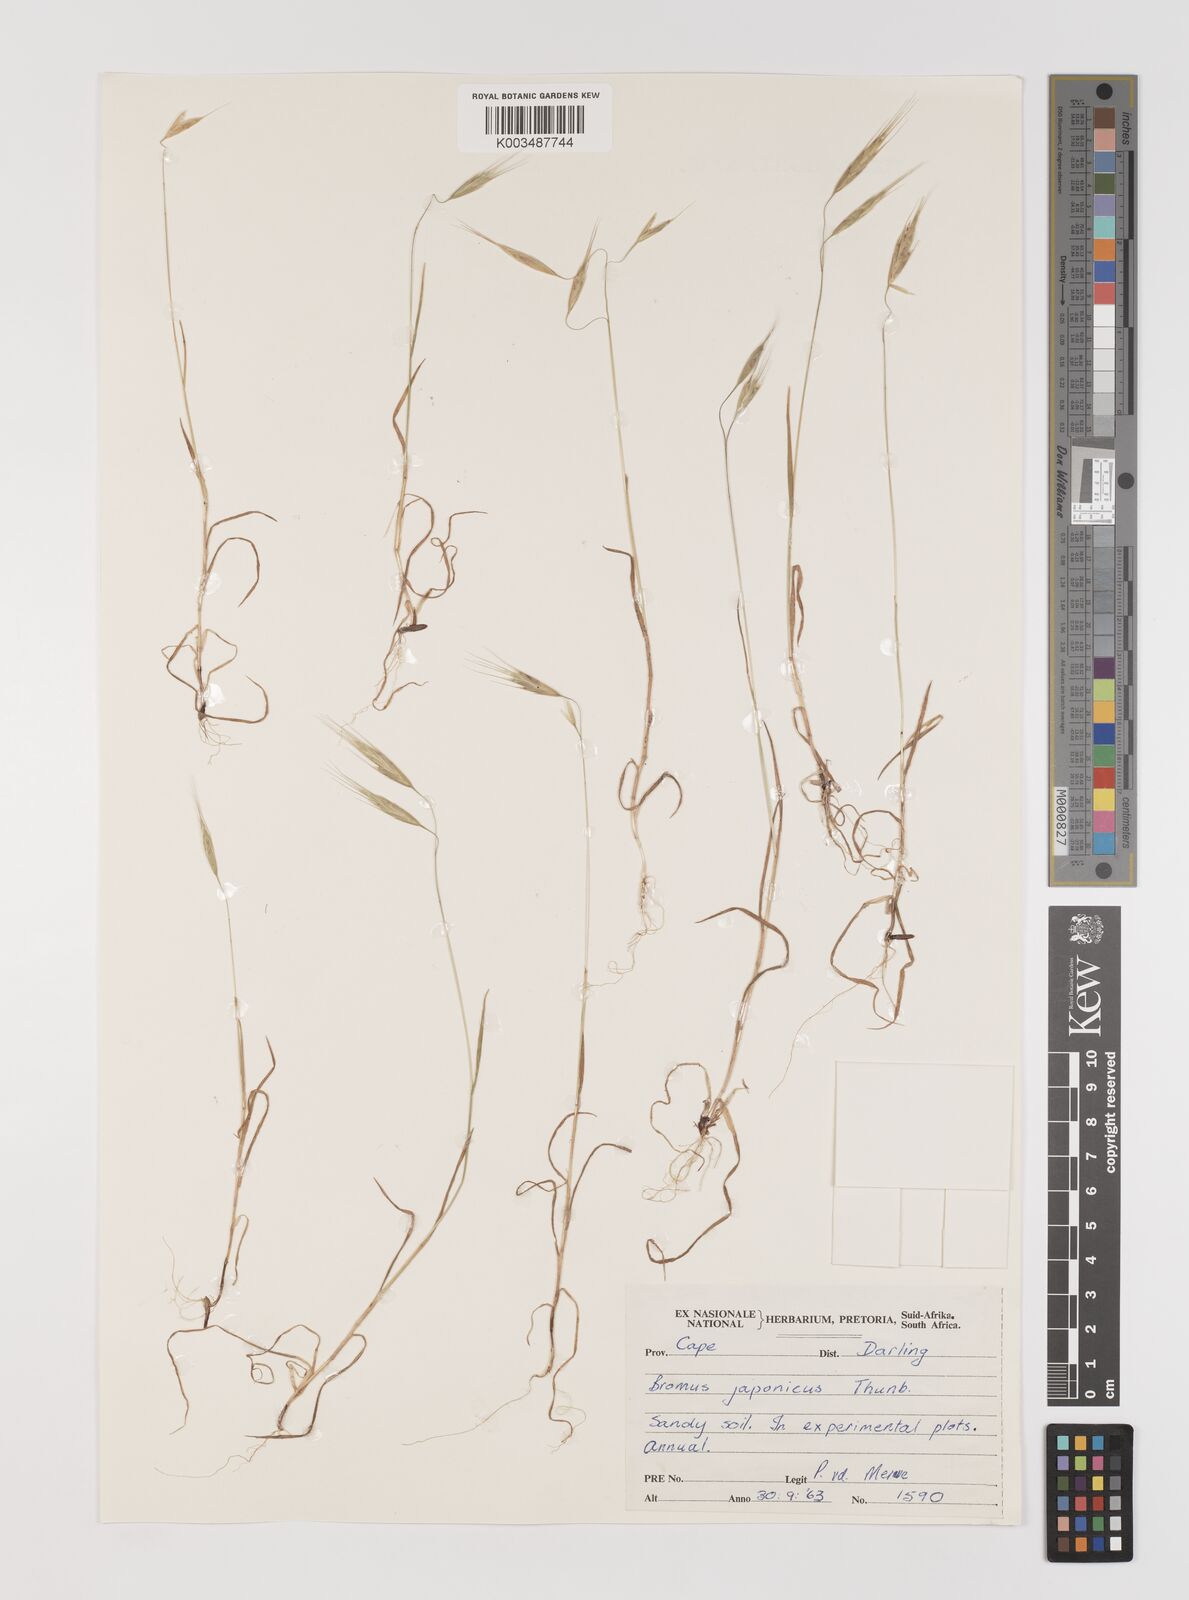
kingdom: Plantae
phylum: Tracheophyta
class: Liliopsida
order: Poales
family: Poaceae
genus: Bromus
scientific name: Bromus pectinatus
